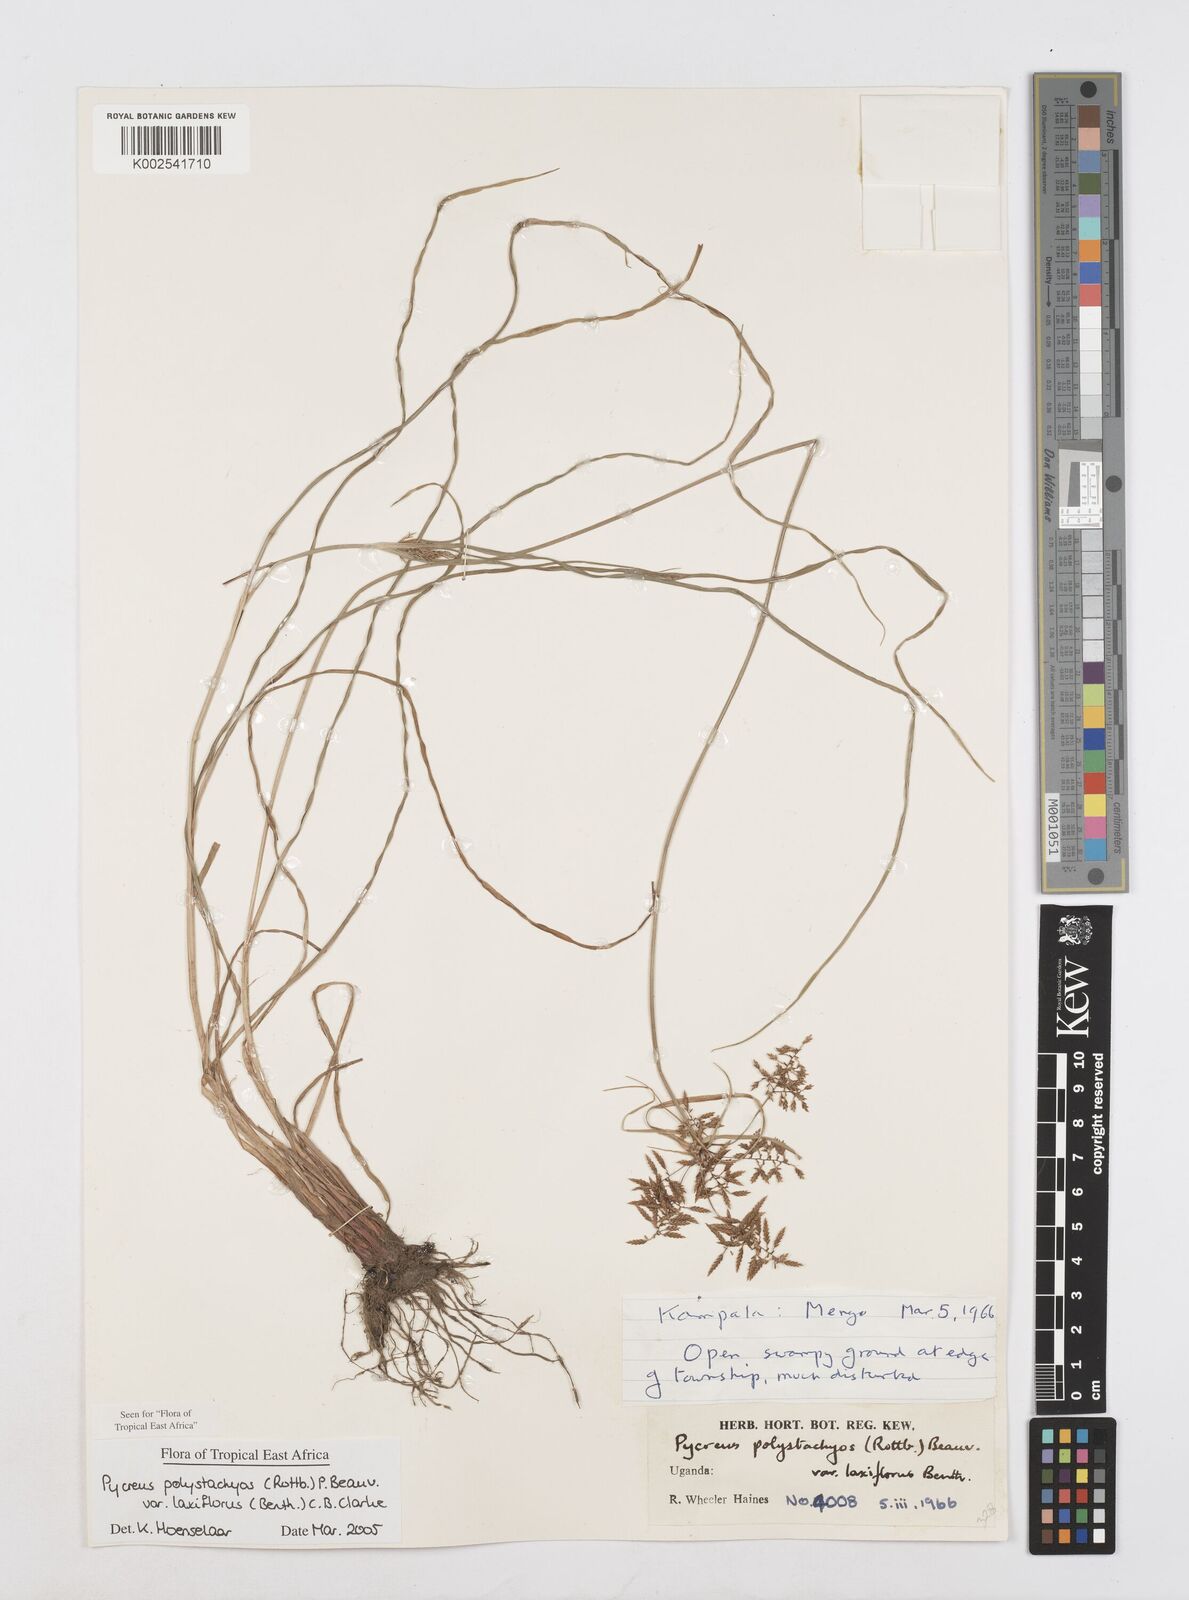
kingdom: Plantae
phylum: Tracheophyta
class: Liliopsida
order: Poales
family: Cyperaceae
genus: Cyperus
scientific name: Cyperus polystachyos
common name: Bunchy flat sedge
